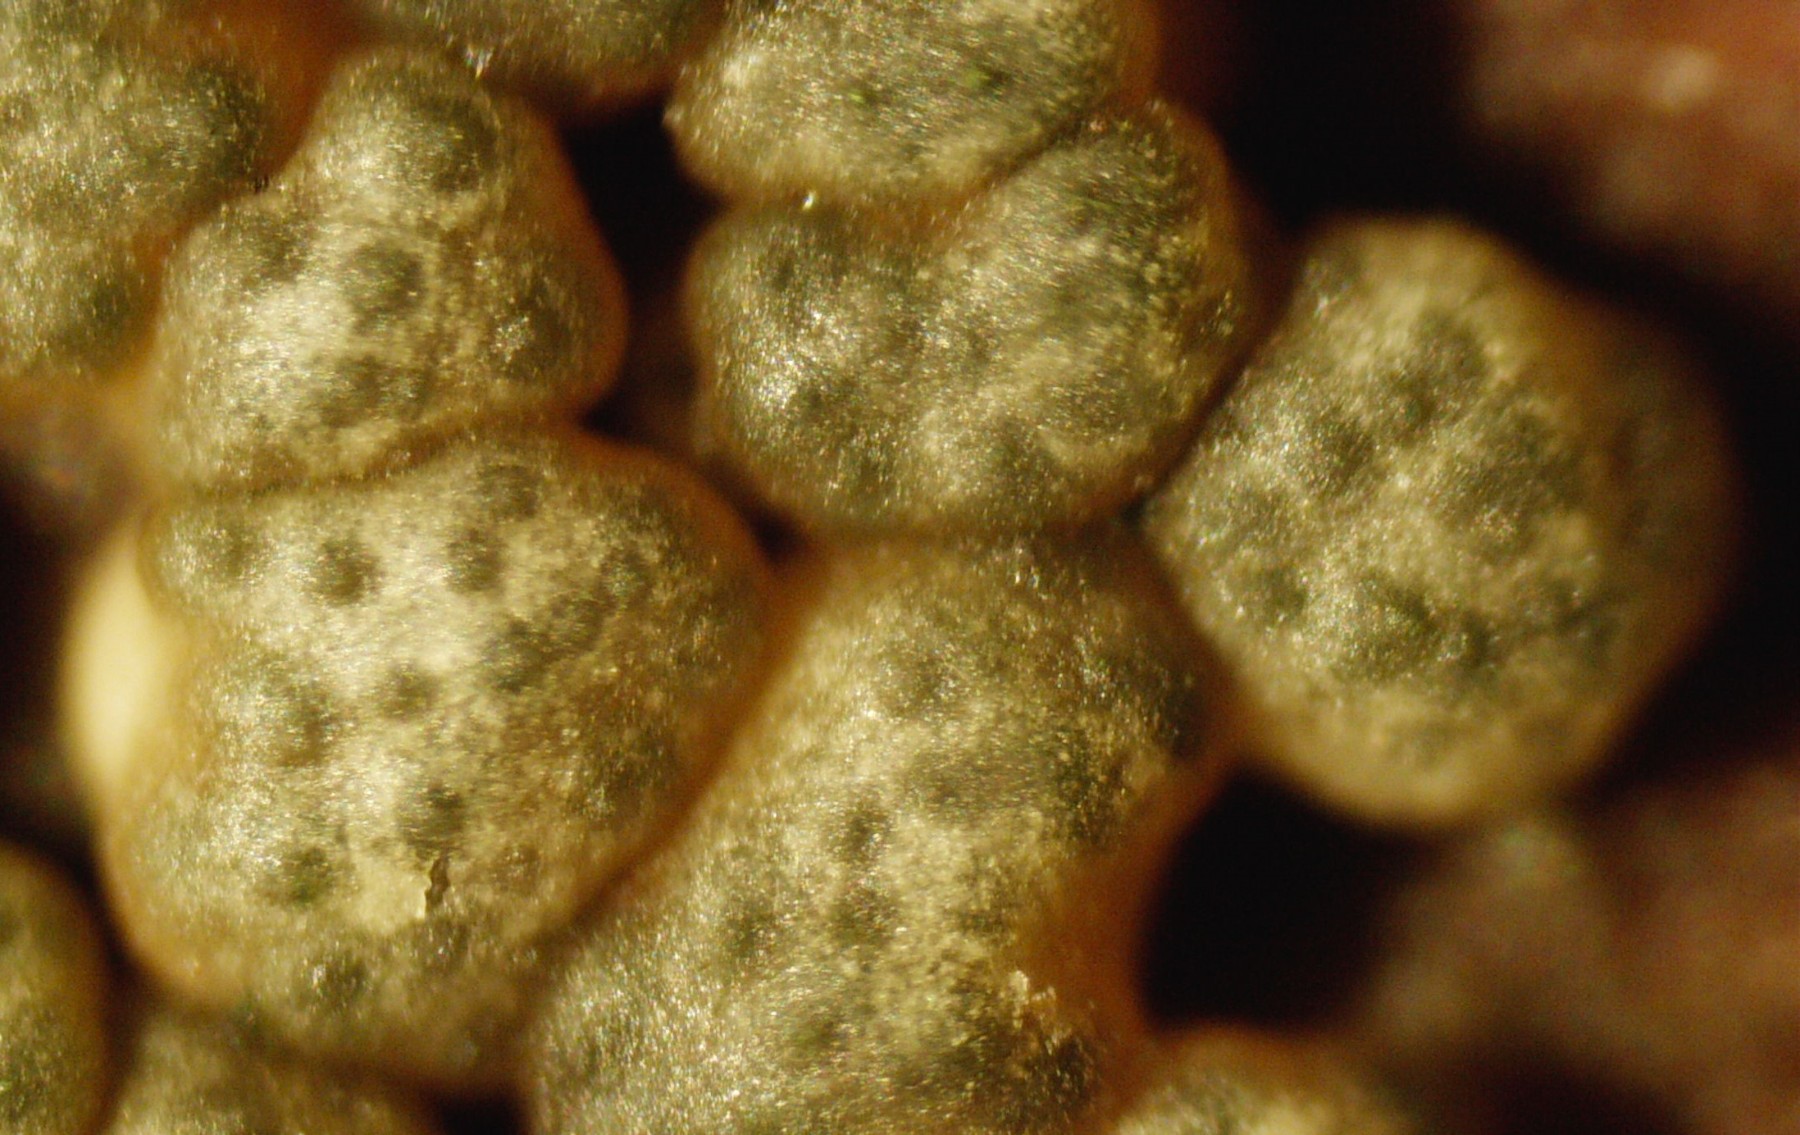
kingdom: Fungi
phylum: Ascomycota
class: Sordariomycetes
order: Hypocreales
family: Hypocreaceae
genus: Trichoderma
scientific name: Trichoderma strictipile
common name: grønprikket kødkerne
